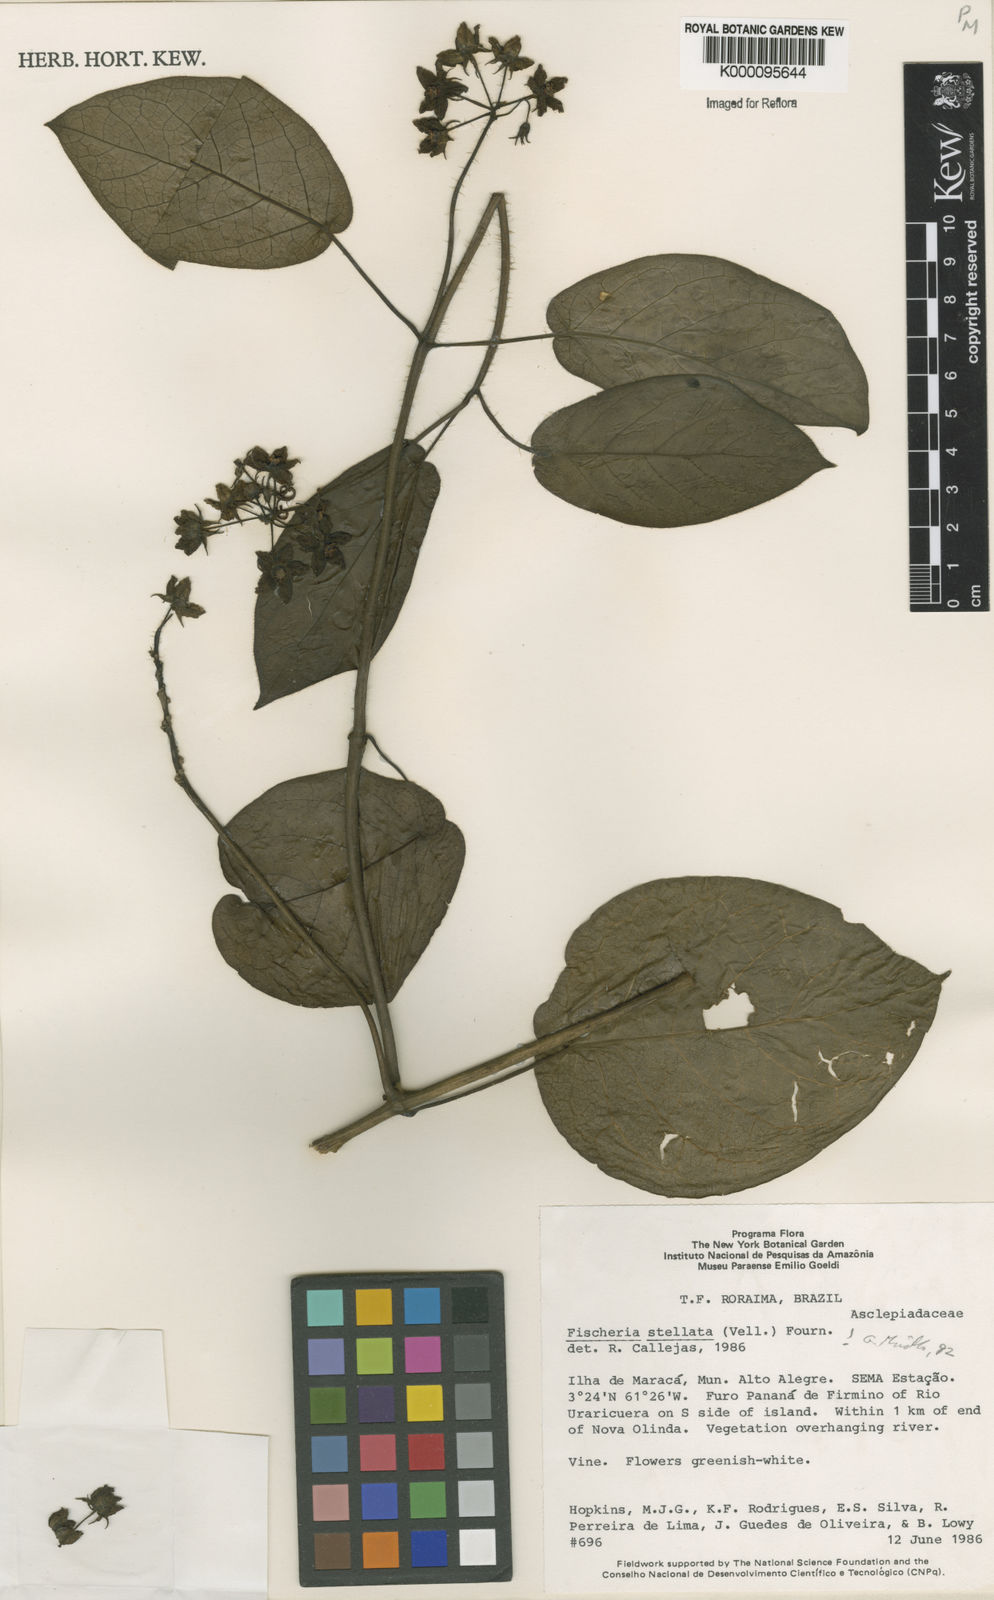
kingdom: Plantae
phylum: Tracheophyta
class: Magnoliopsida
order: Gentianales
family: Apocynaceae
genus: Fischeria
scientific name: Fischeria stellata
